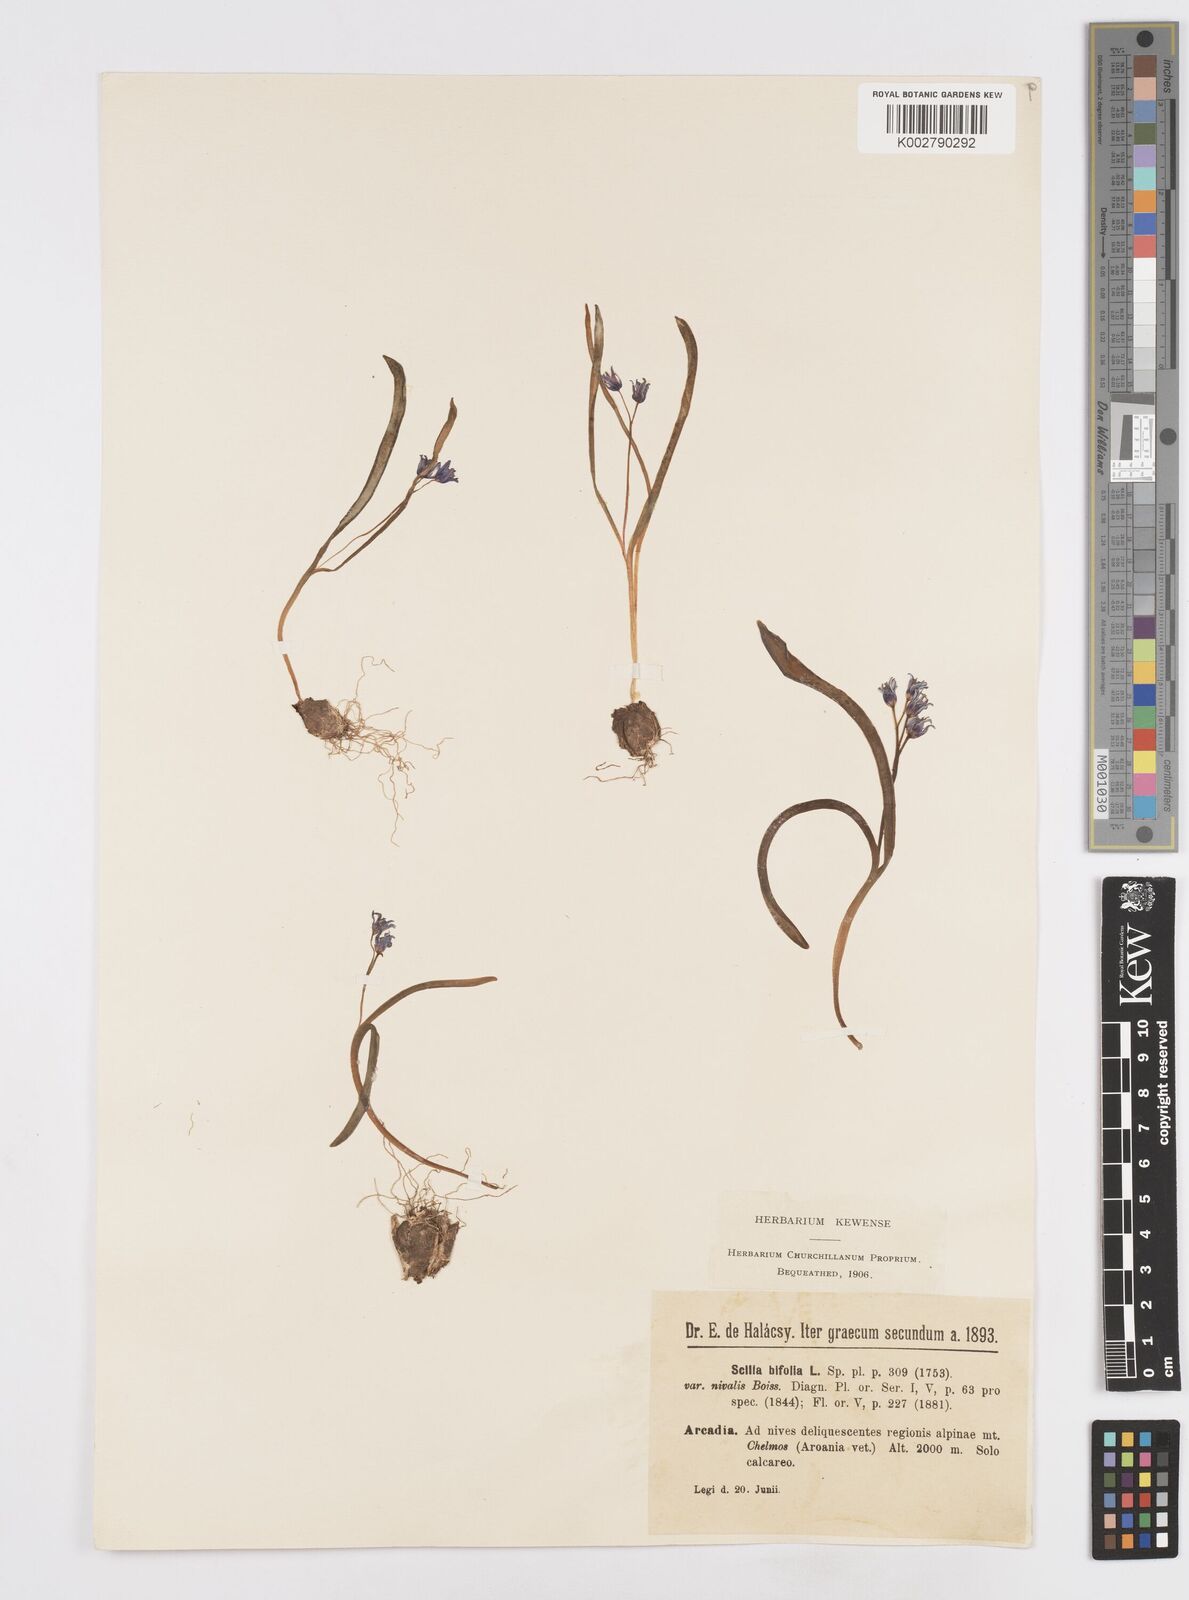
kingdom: Plantae
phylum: Tracheophyta
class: Liliopsida
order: Asparagales
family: Asparagaceae
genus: Scilla
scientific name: Scilla nivalis
